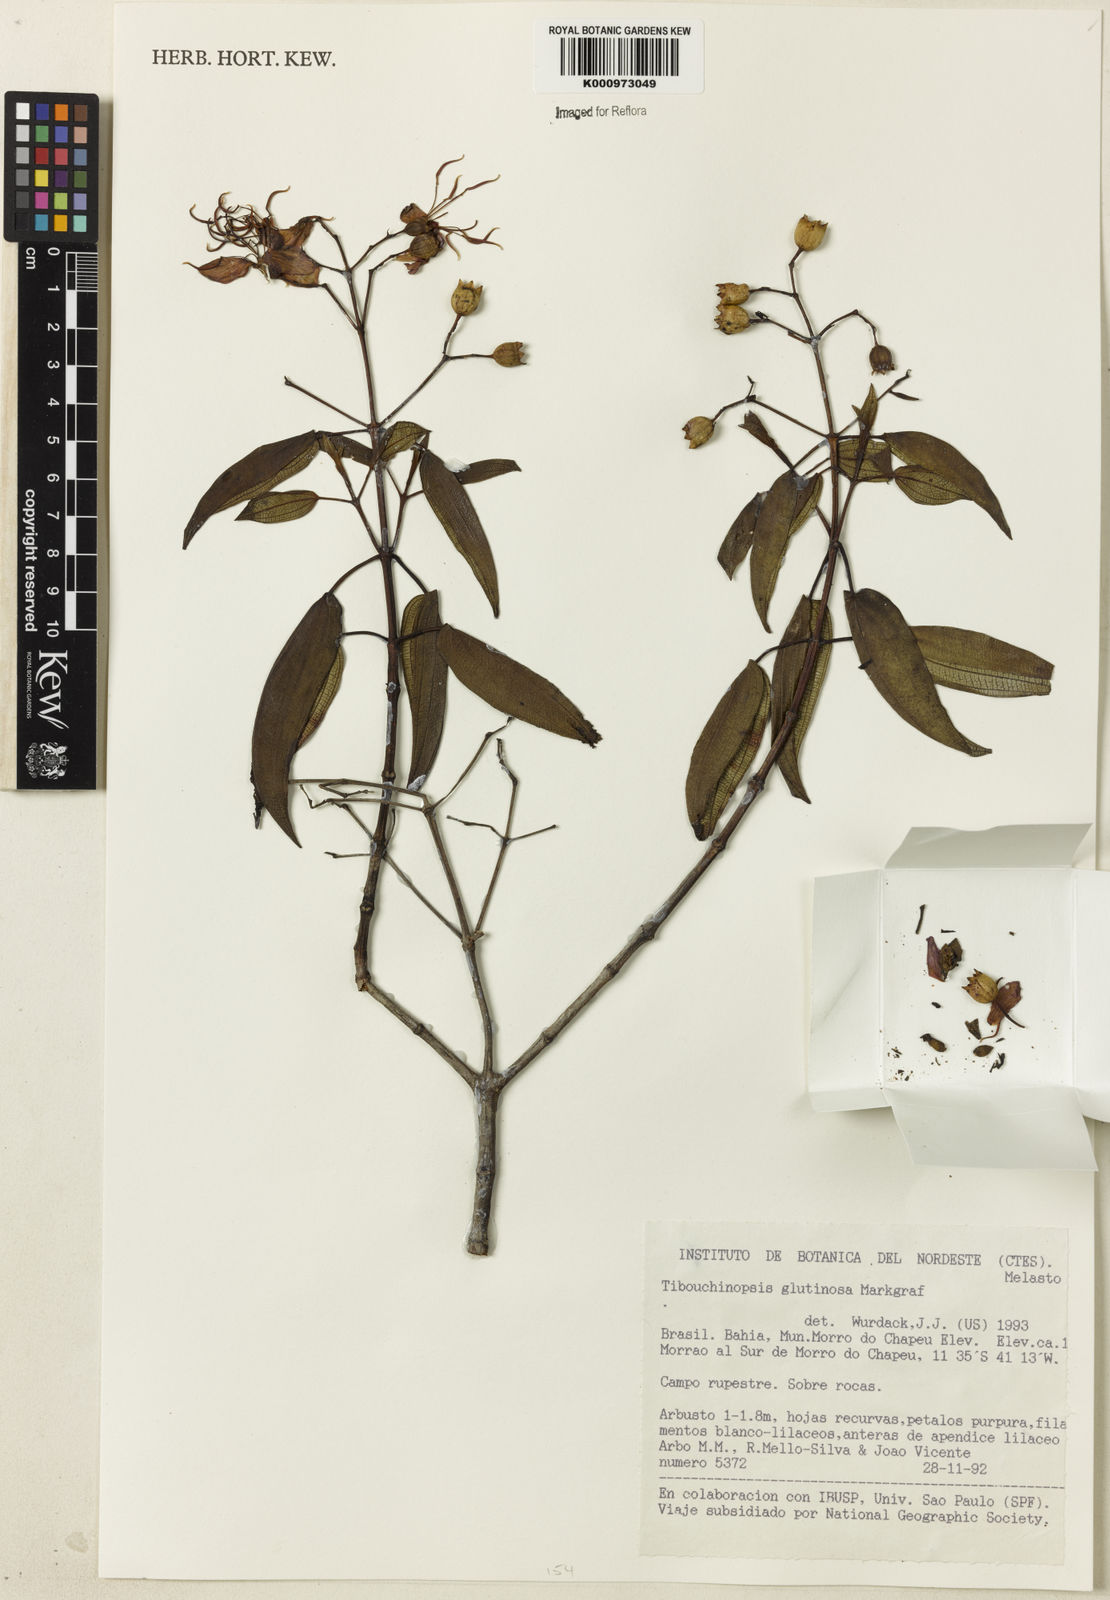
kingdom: Plantae
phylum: Tracheophyta
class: Magnoliopsida
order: Myrtales
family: Melastomataceae
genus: Pleroma
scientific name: Pleroma glutinosum
